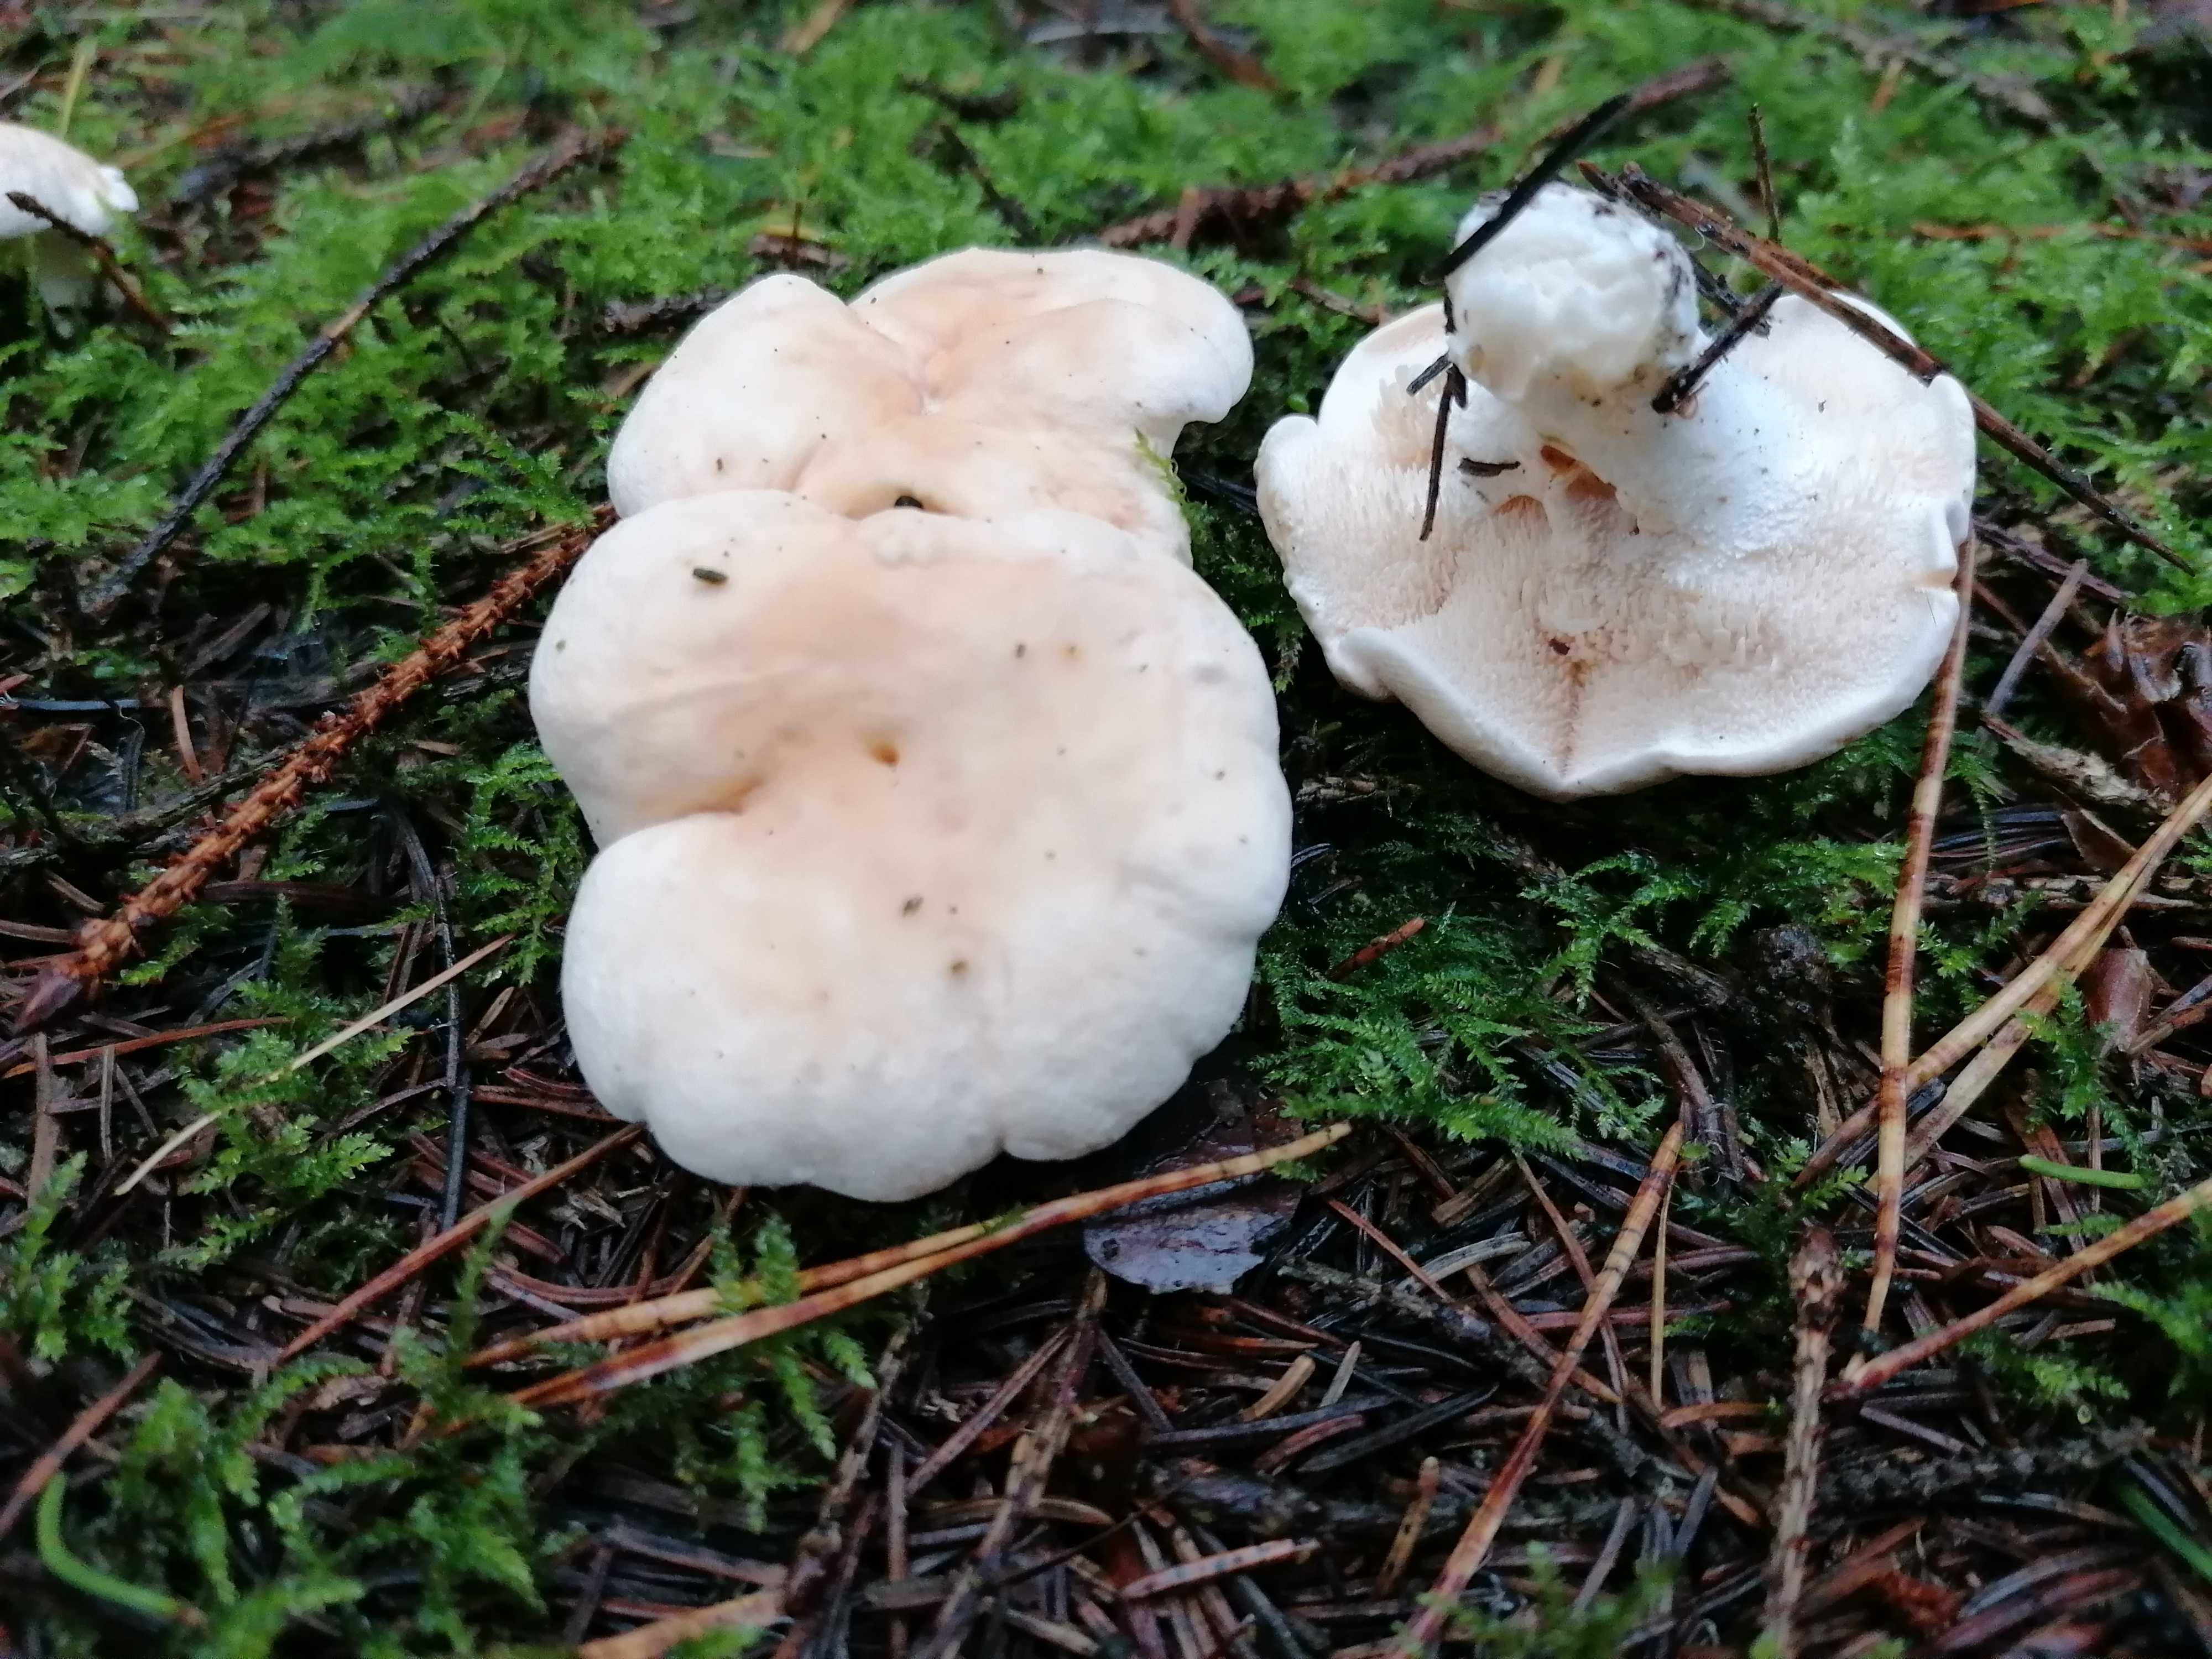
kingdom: Fungi
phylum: Basidiomycota
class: Agaricomycetes
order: Cantharellales
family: Hydnaceae
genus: Hydnum
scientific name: Hydnum repandum
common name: almindelig pigsvamp
